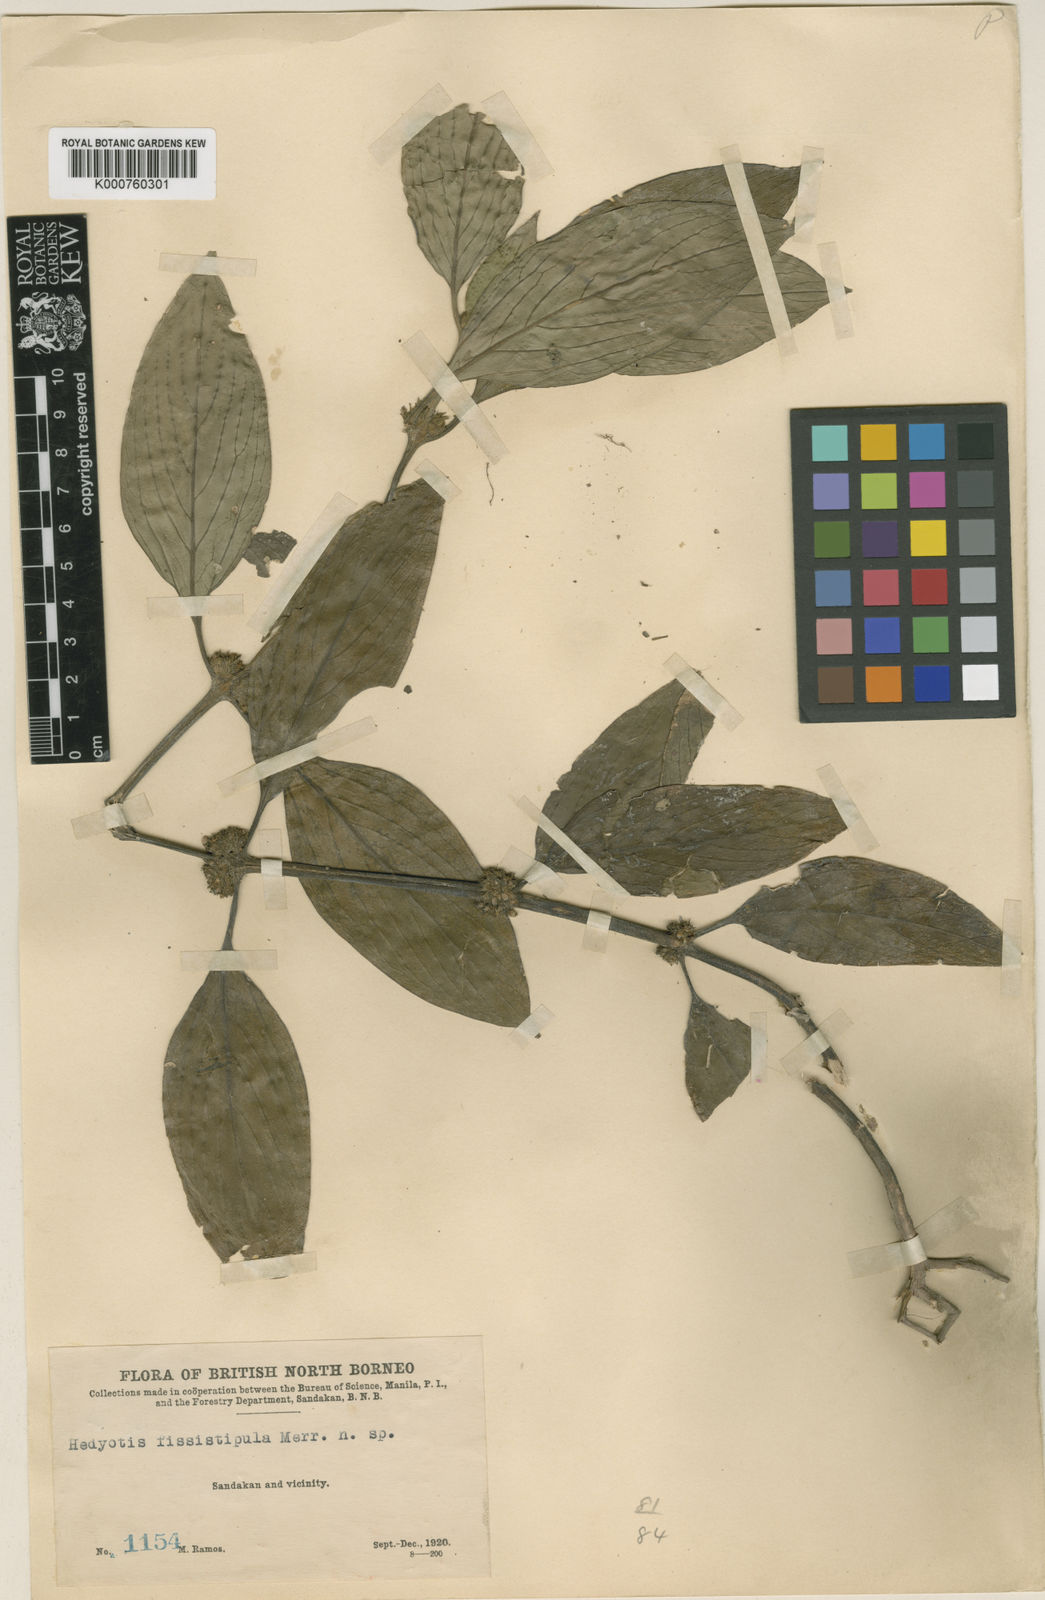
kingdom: Plantae
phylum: Tracheophyta
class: Magnoliopsida
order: Gentianales
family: Rubiaceae
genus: Hedyotis
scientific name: Hedyotis fissistipula
